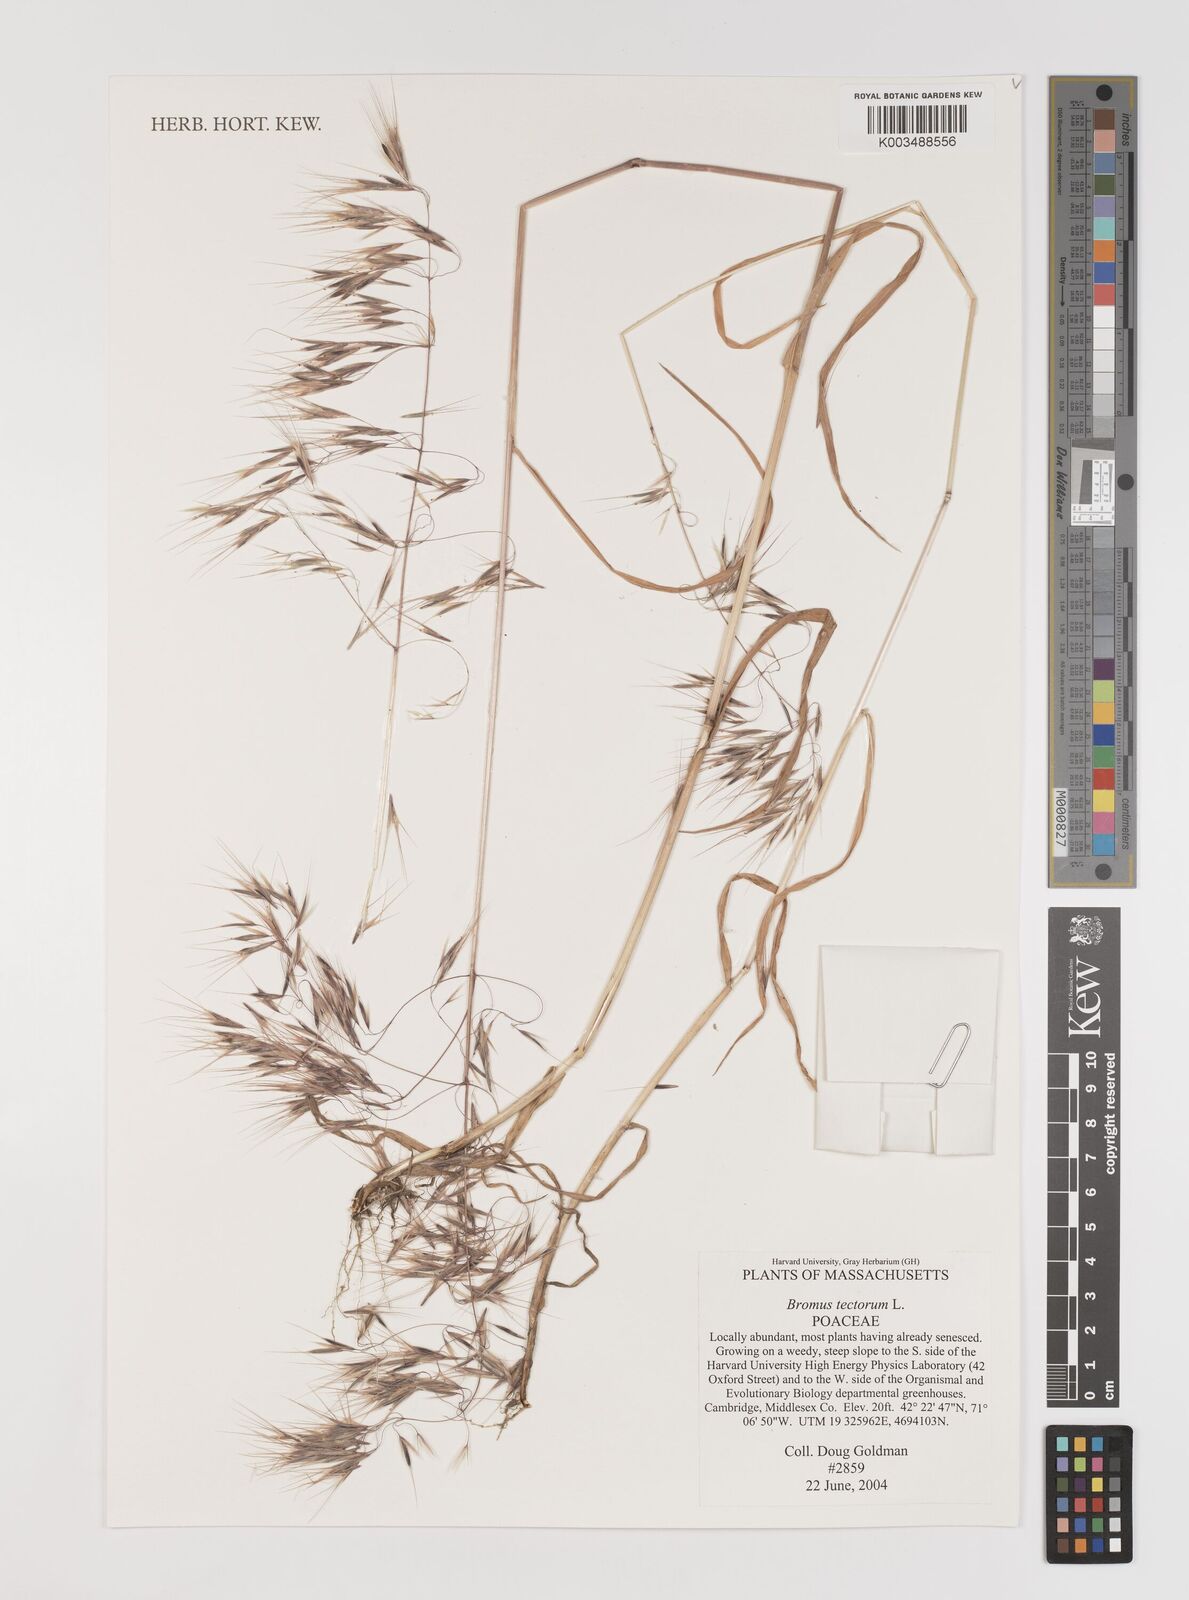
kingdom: Plantae
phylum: Tracheophyta
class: Liliopsida
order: Poales
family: Poaceae
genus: Bromus
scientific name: Bromus tectorum
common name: Cheatgrass
